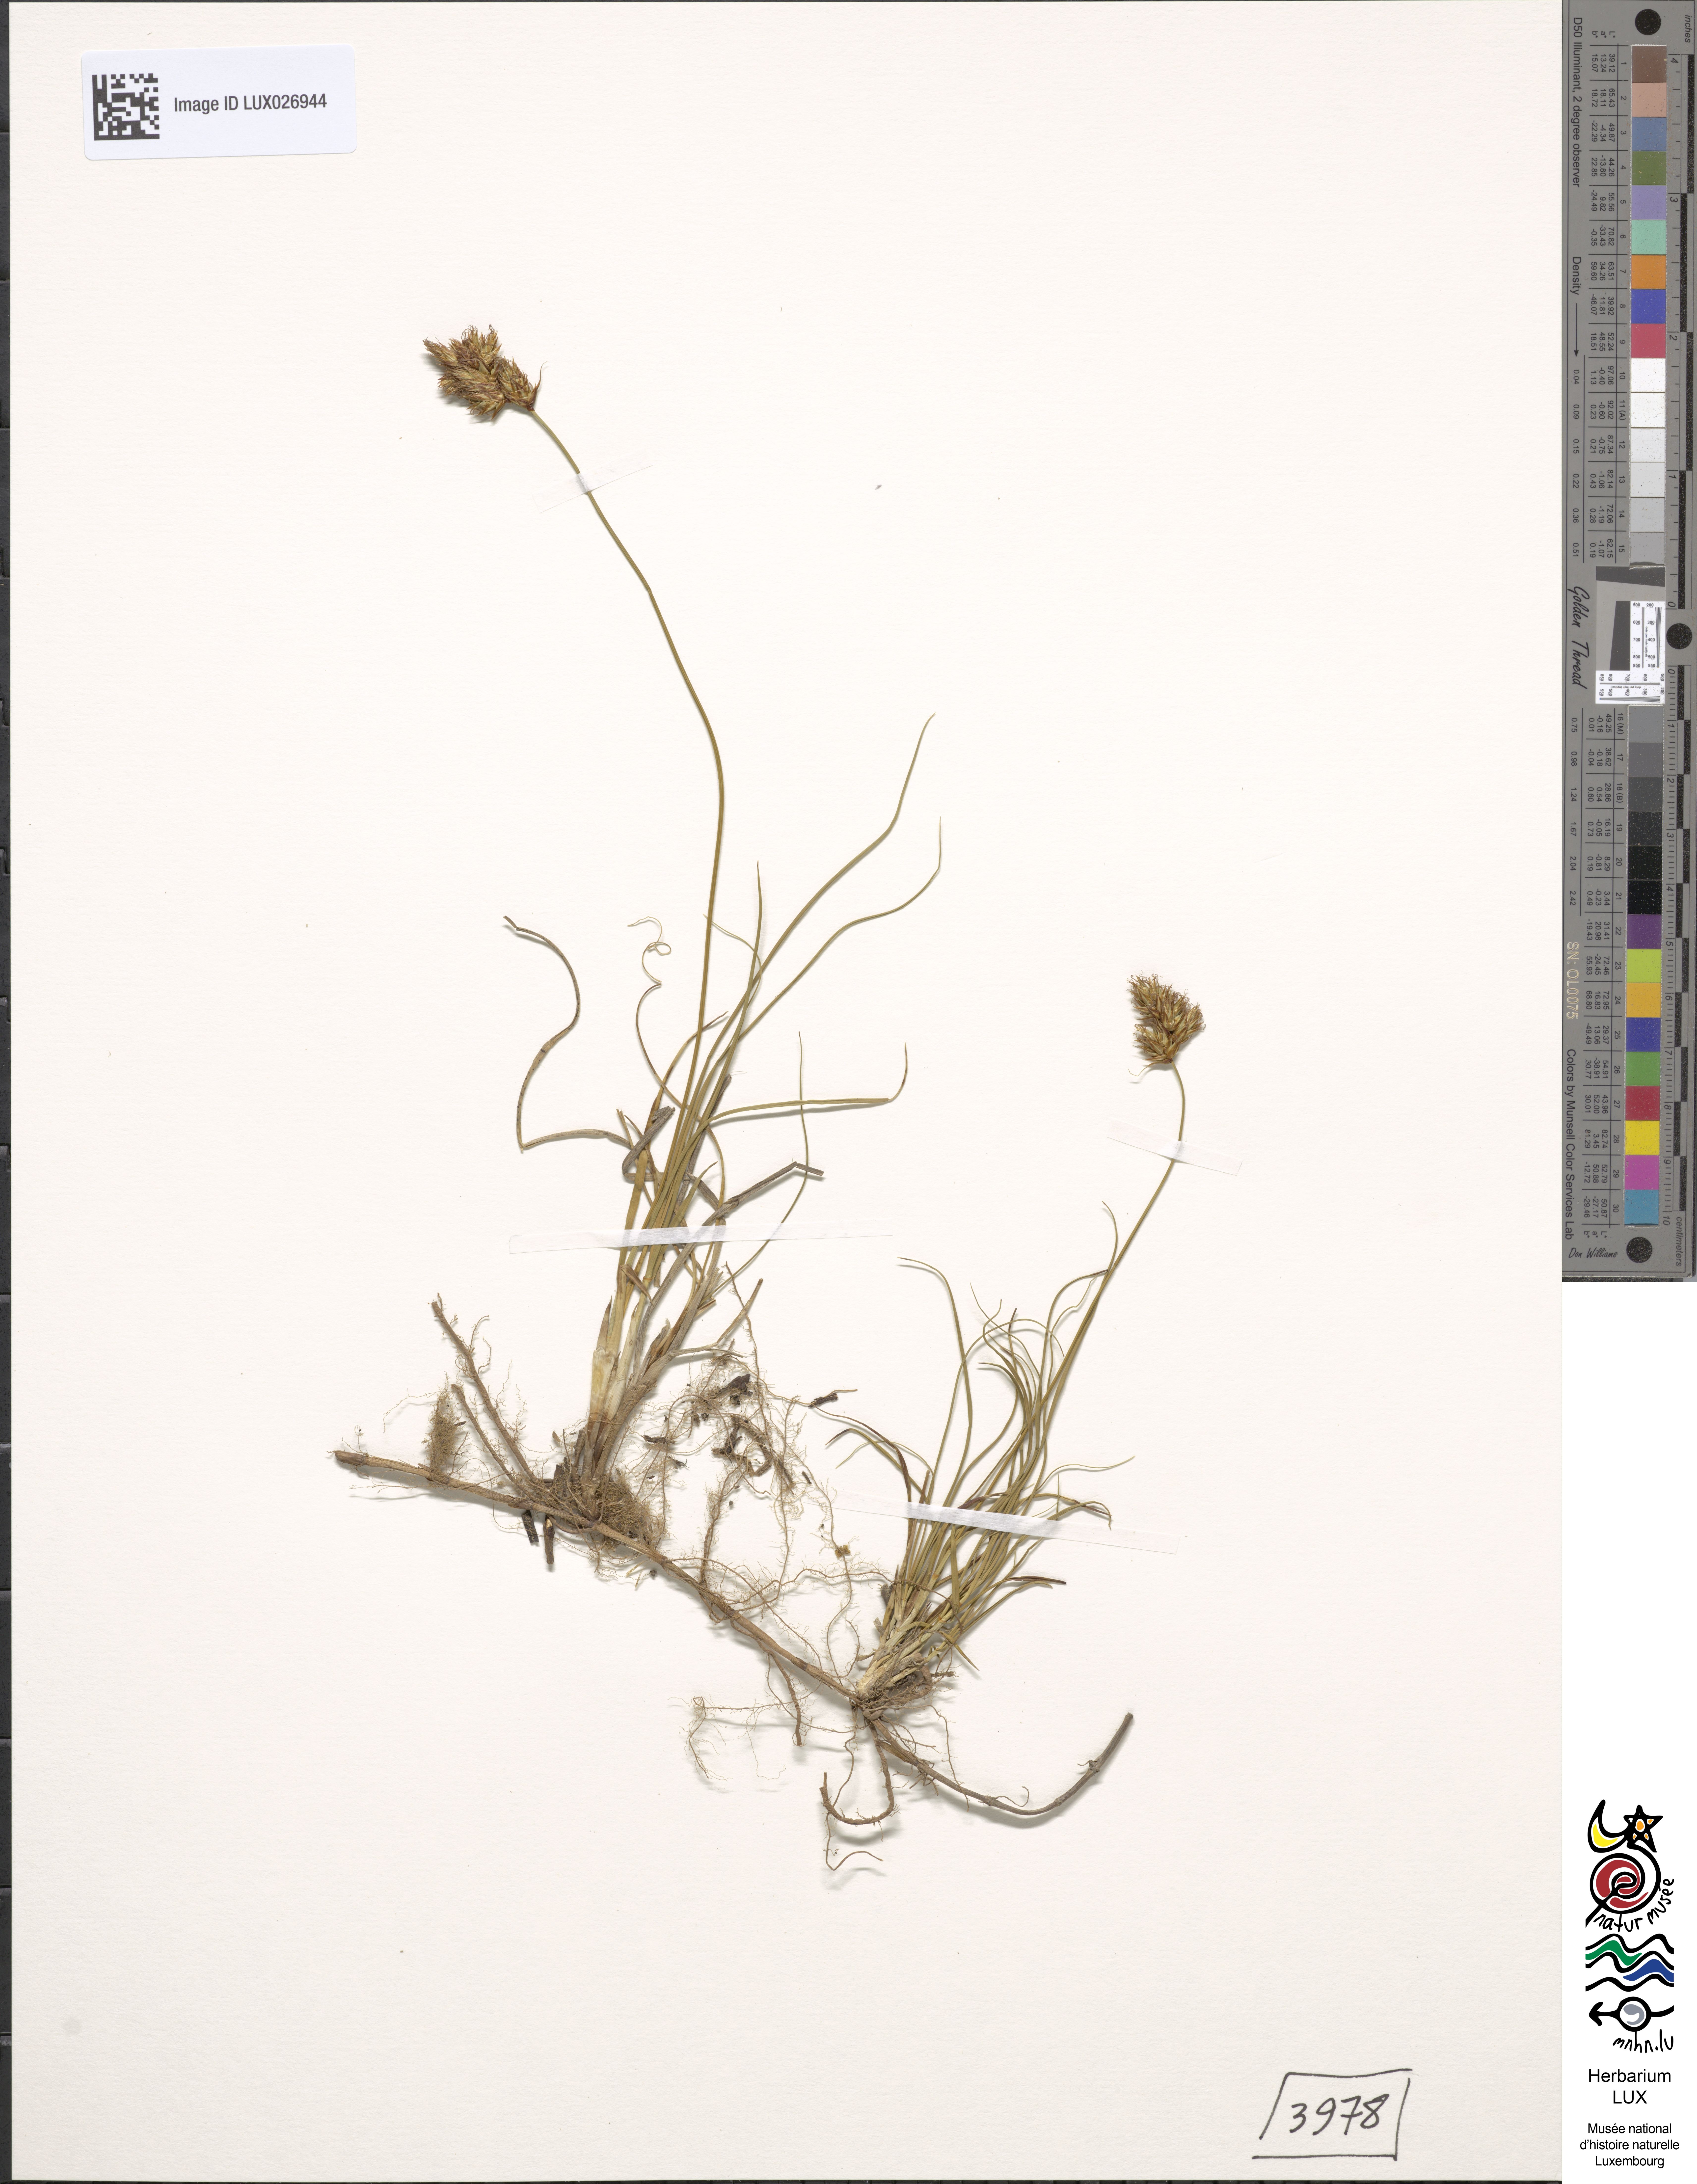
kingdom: Plantae
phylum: Tracheophyta
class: Liliopsida
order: Poales
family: Cyperaceae
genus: Carex
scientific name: Carex colchica
